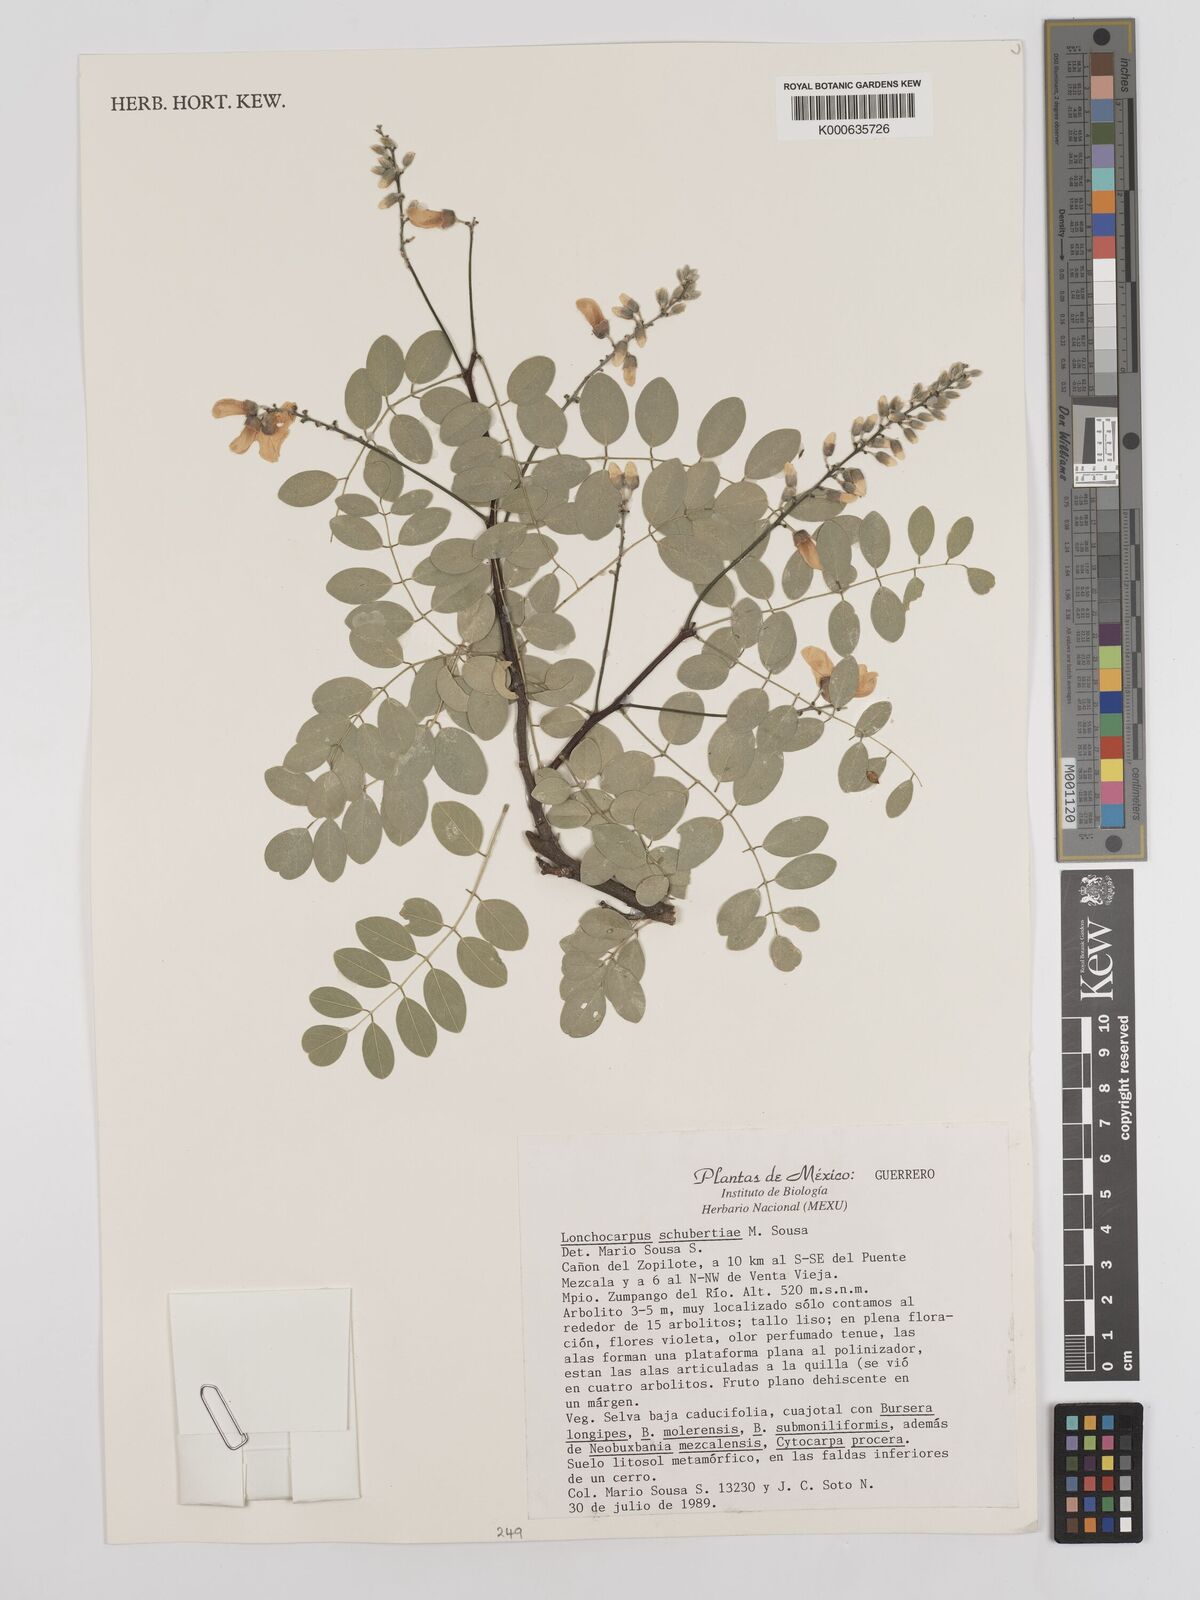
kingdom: Plantae
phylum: Tracheophyta
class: Magnoliopsida
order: Fabales
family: Fabaceae
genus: Lonchocarpus
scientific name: Lonchocarpus schubertiae
